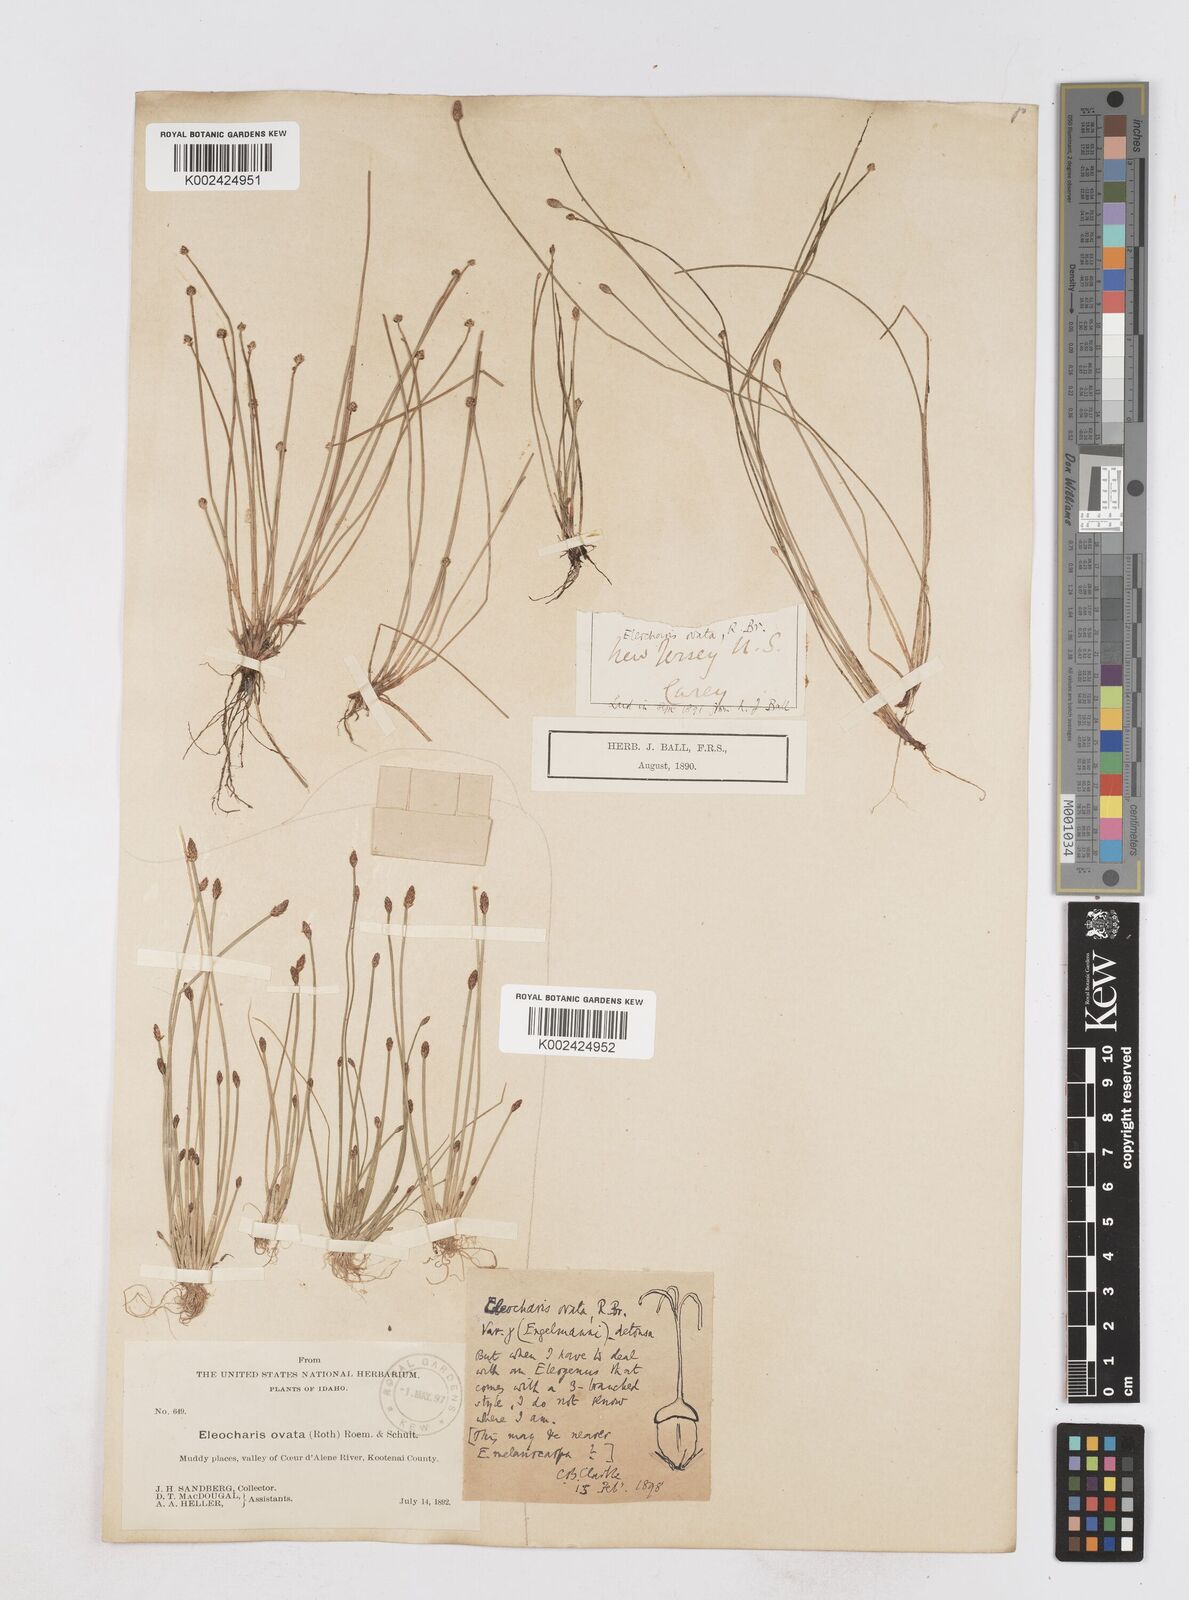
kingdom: Plantae
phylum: Tracheophyta
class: Liliopsida
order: Poales
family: Cyperaceae
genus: Eleocharis
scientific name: Eleocharis engelmannii
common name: Engelmann's spikerush
